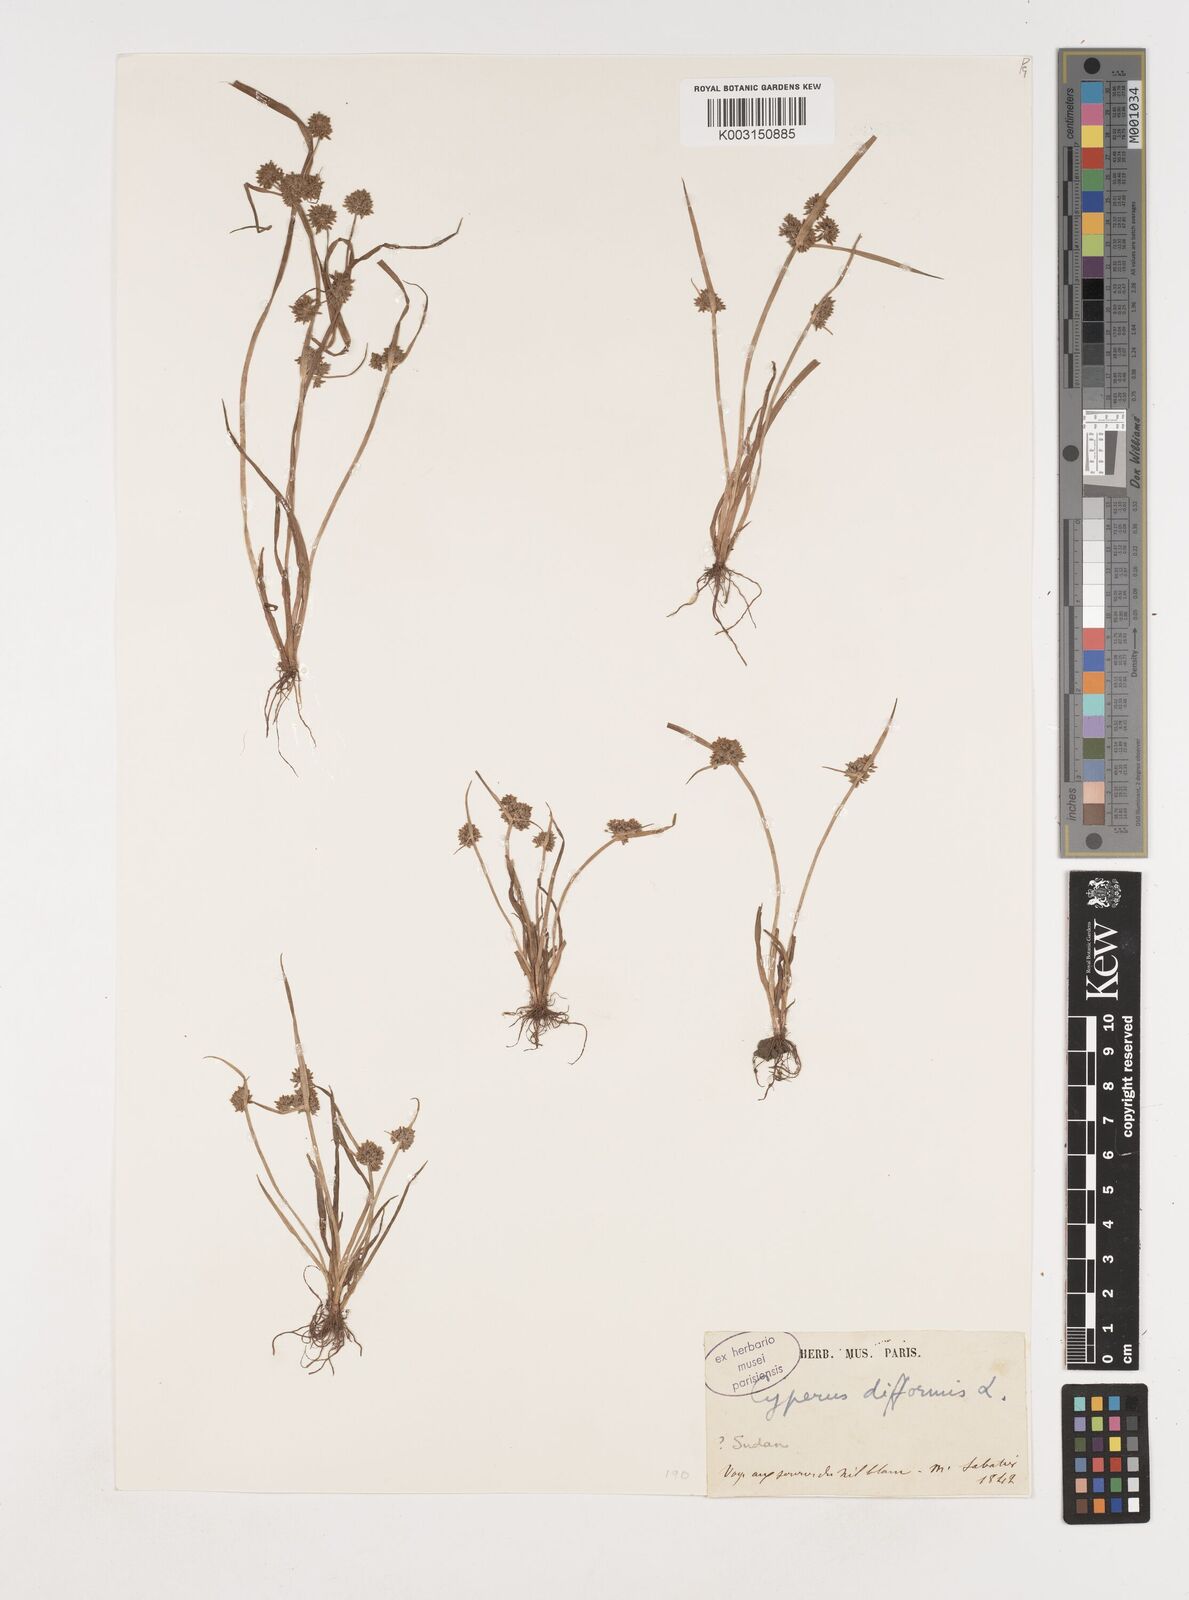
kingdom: Plantae
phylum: Tracheophyta
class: Liliopsida
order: Poales
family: Cyperaceae
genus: Cyperus
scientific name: Cyperus difformis
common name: Variable flatsedge
